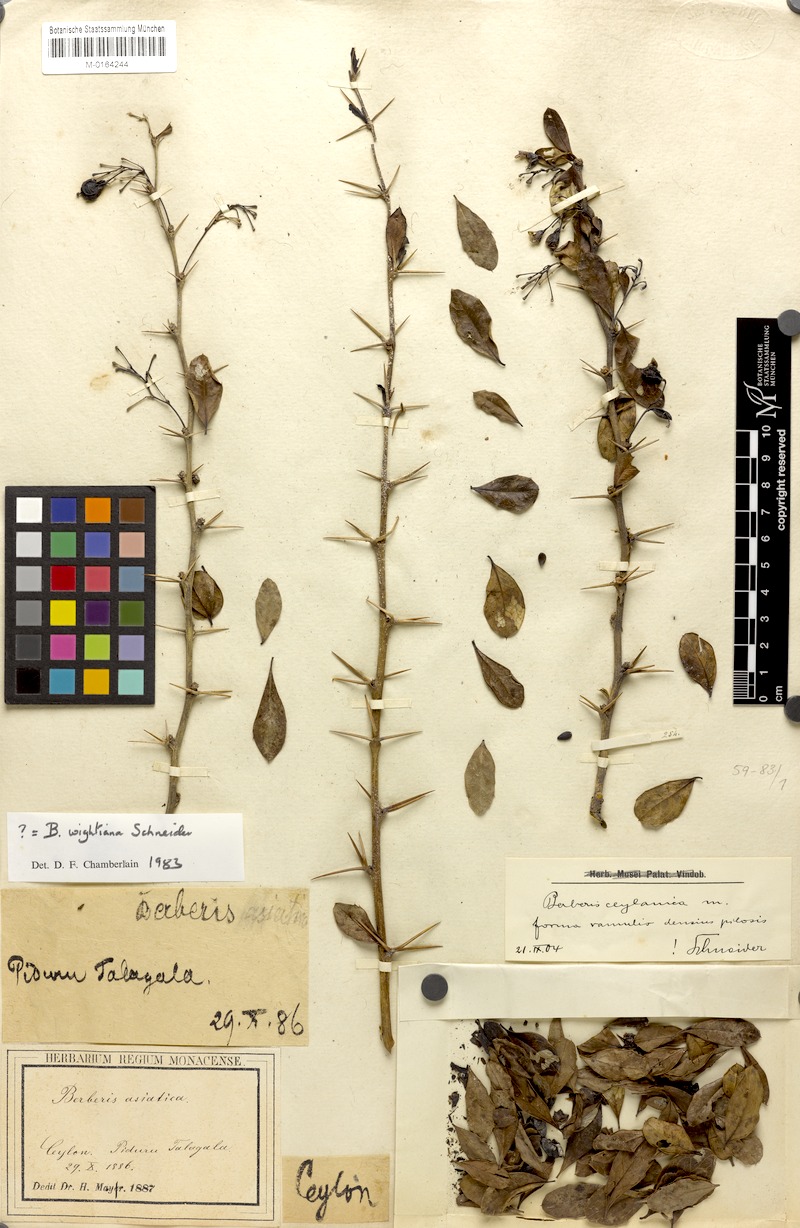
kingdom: Plantae
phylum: Tracheophyta
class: Magnoliopsida
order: Ranunculales
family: Berberidaceae
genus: Berberis
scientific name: Berberis ceylanica
